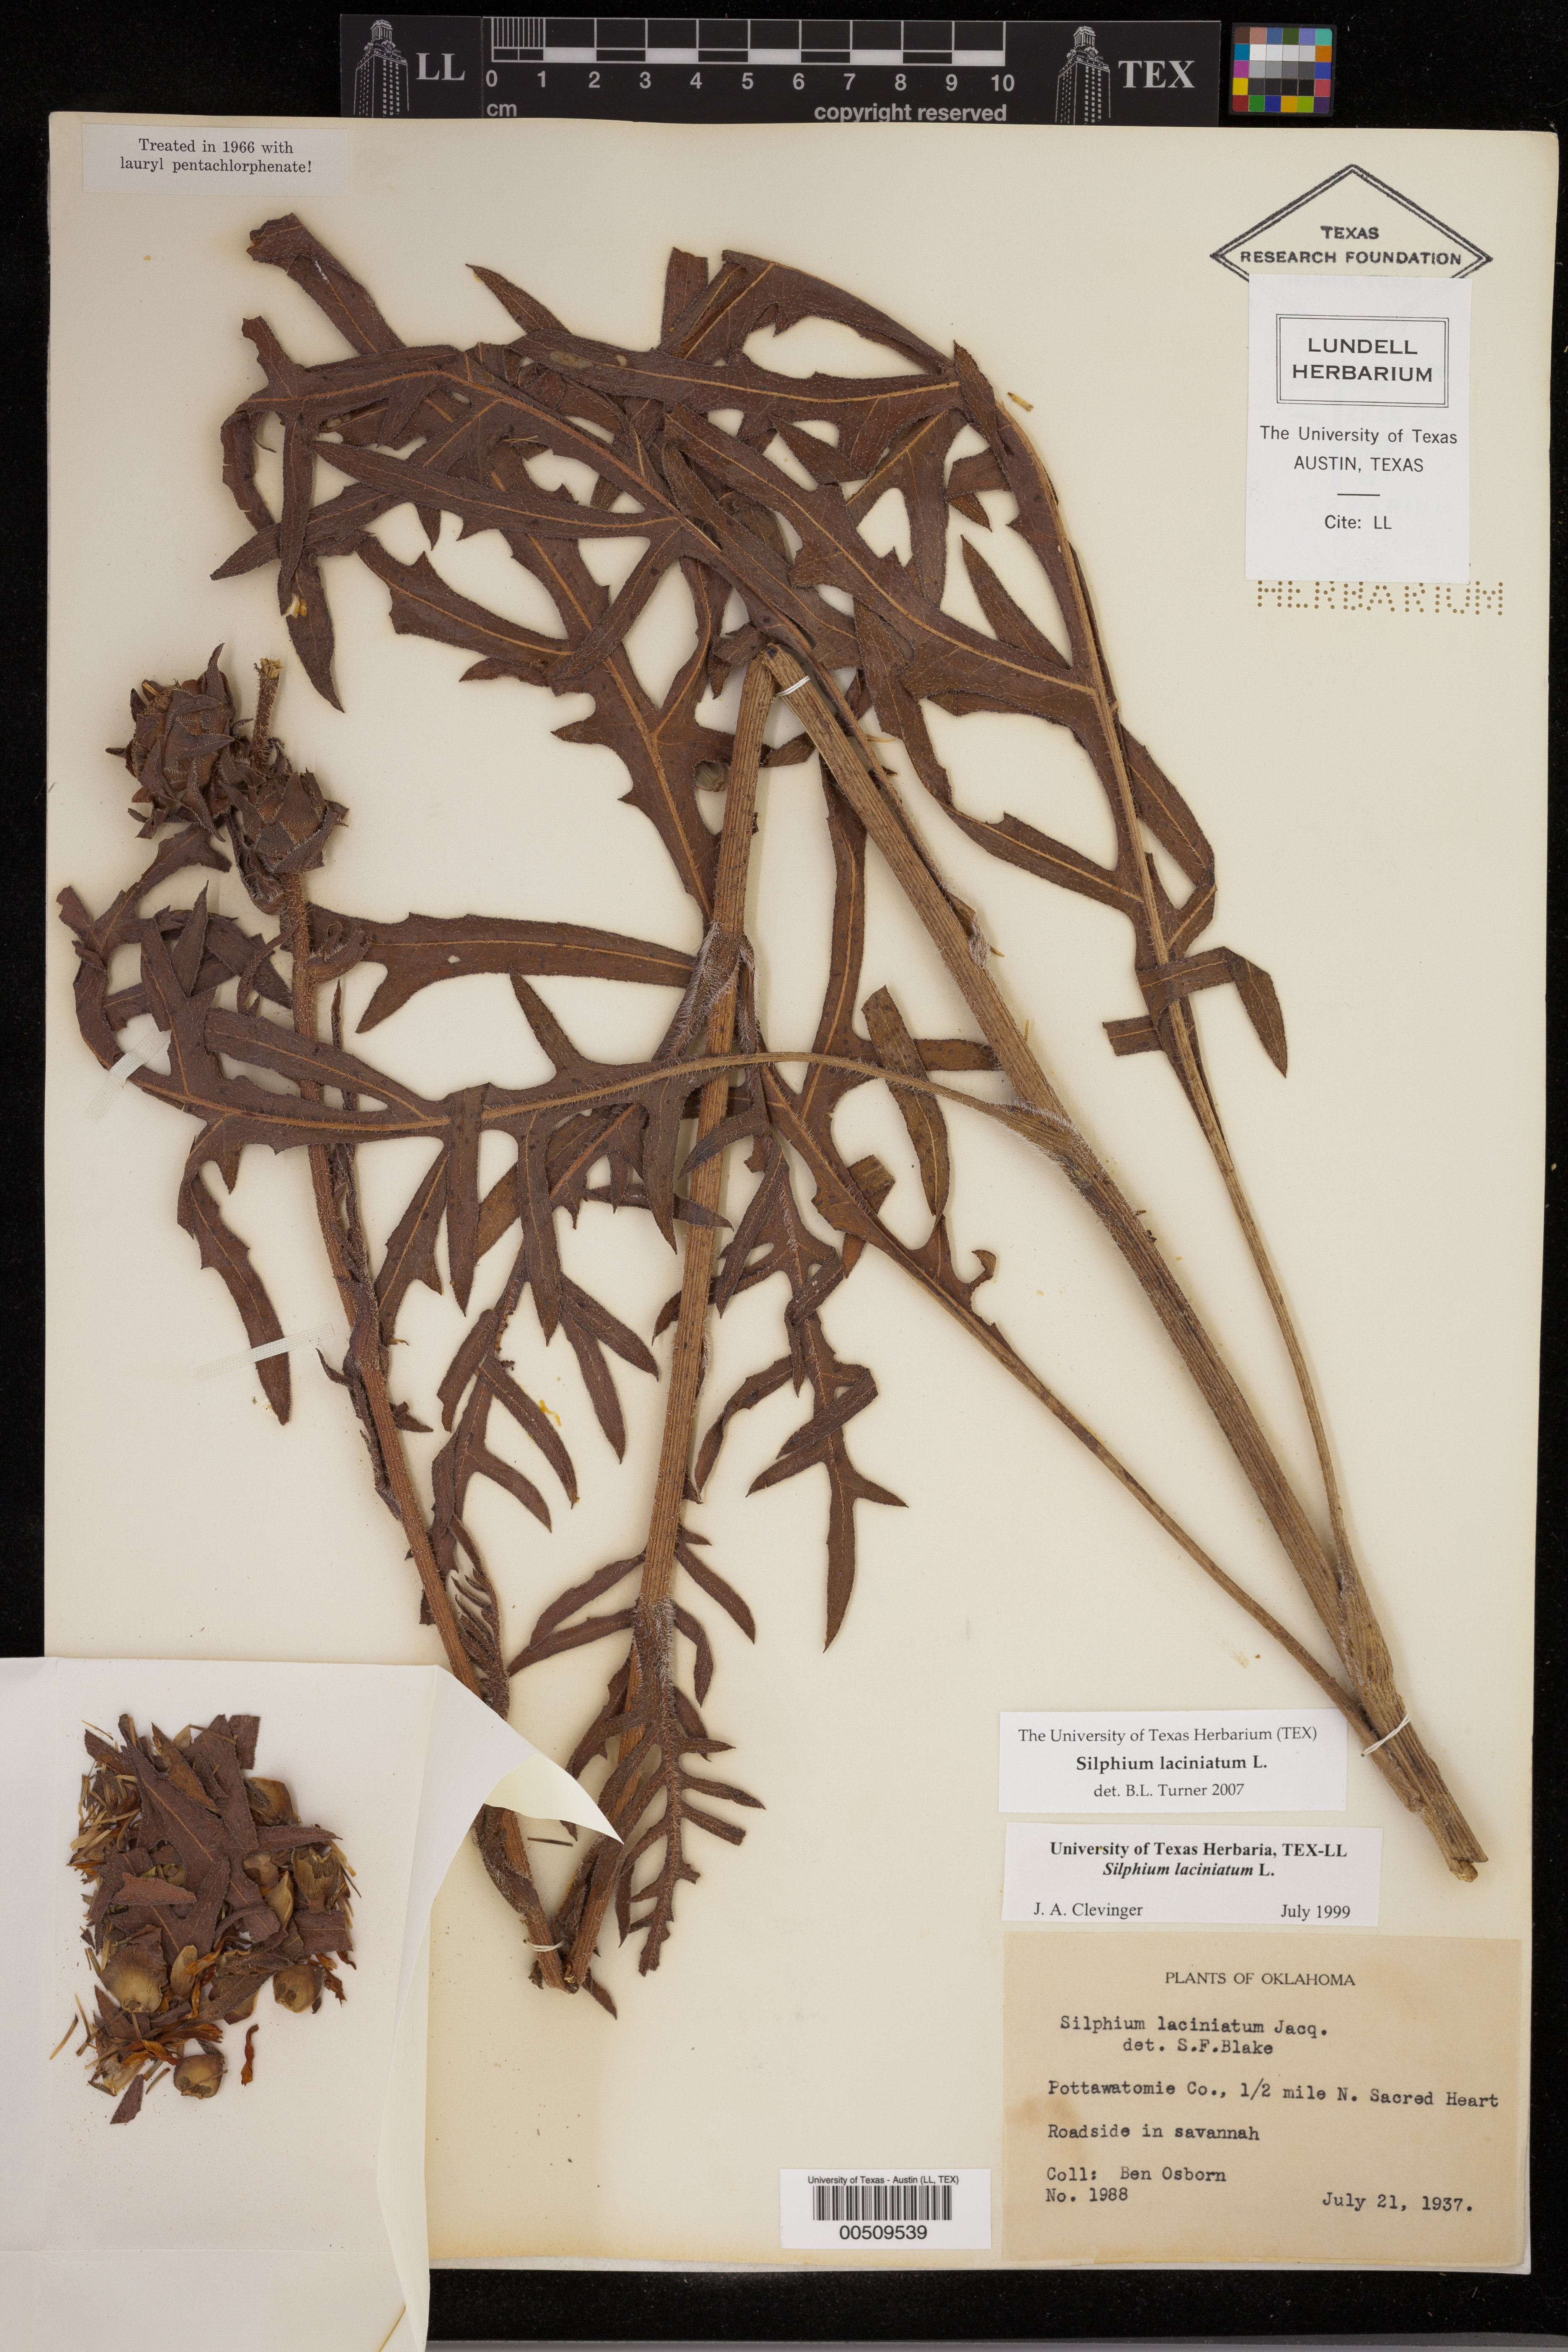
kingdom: Plantae
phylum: Tracheophyta
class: Magnoliopsida
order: Asterales
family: Asteraceae
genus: Silphium
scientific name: Silphium laciniatum
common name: Polarplant
